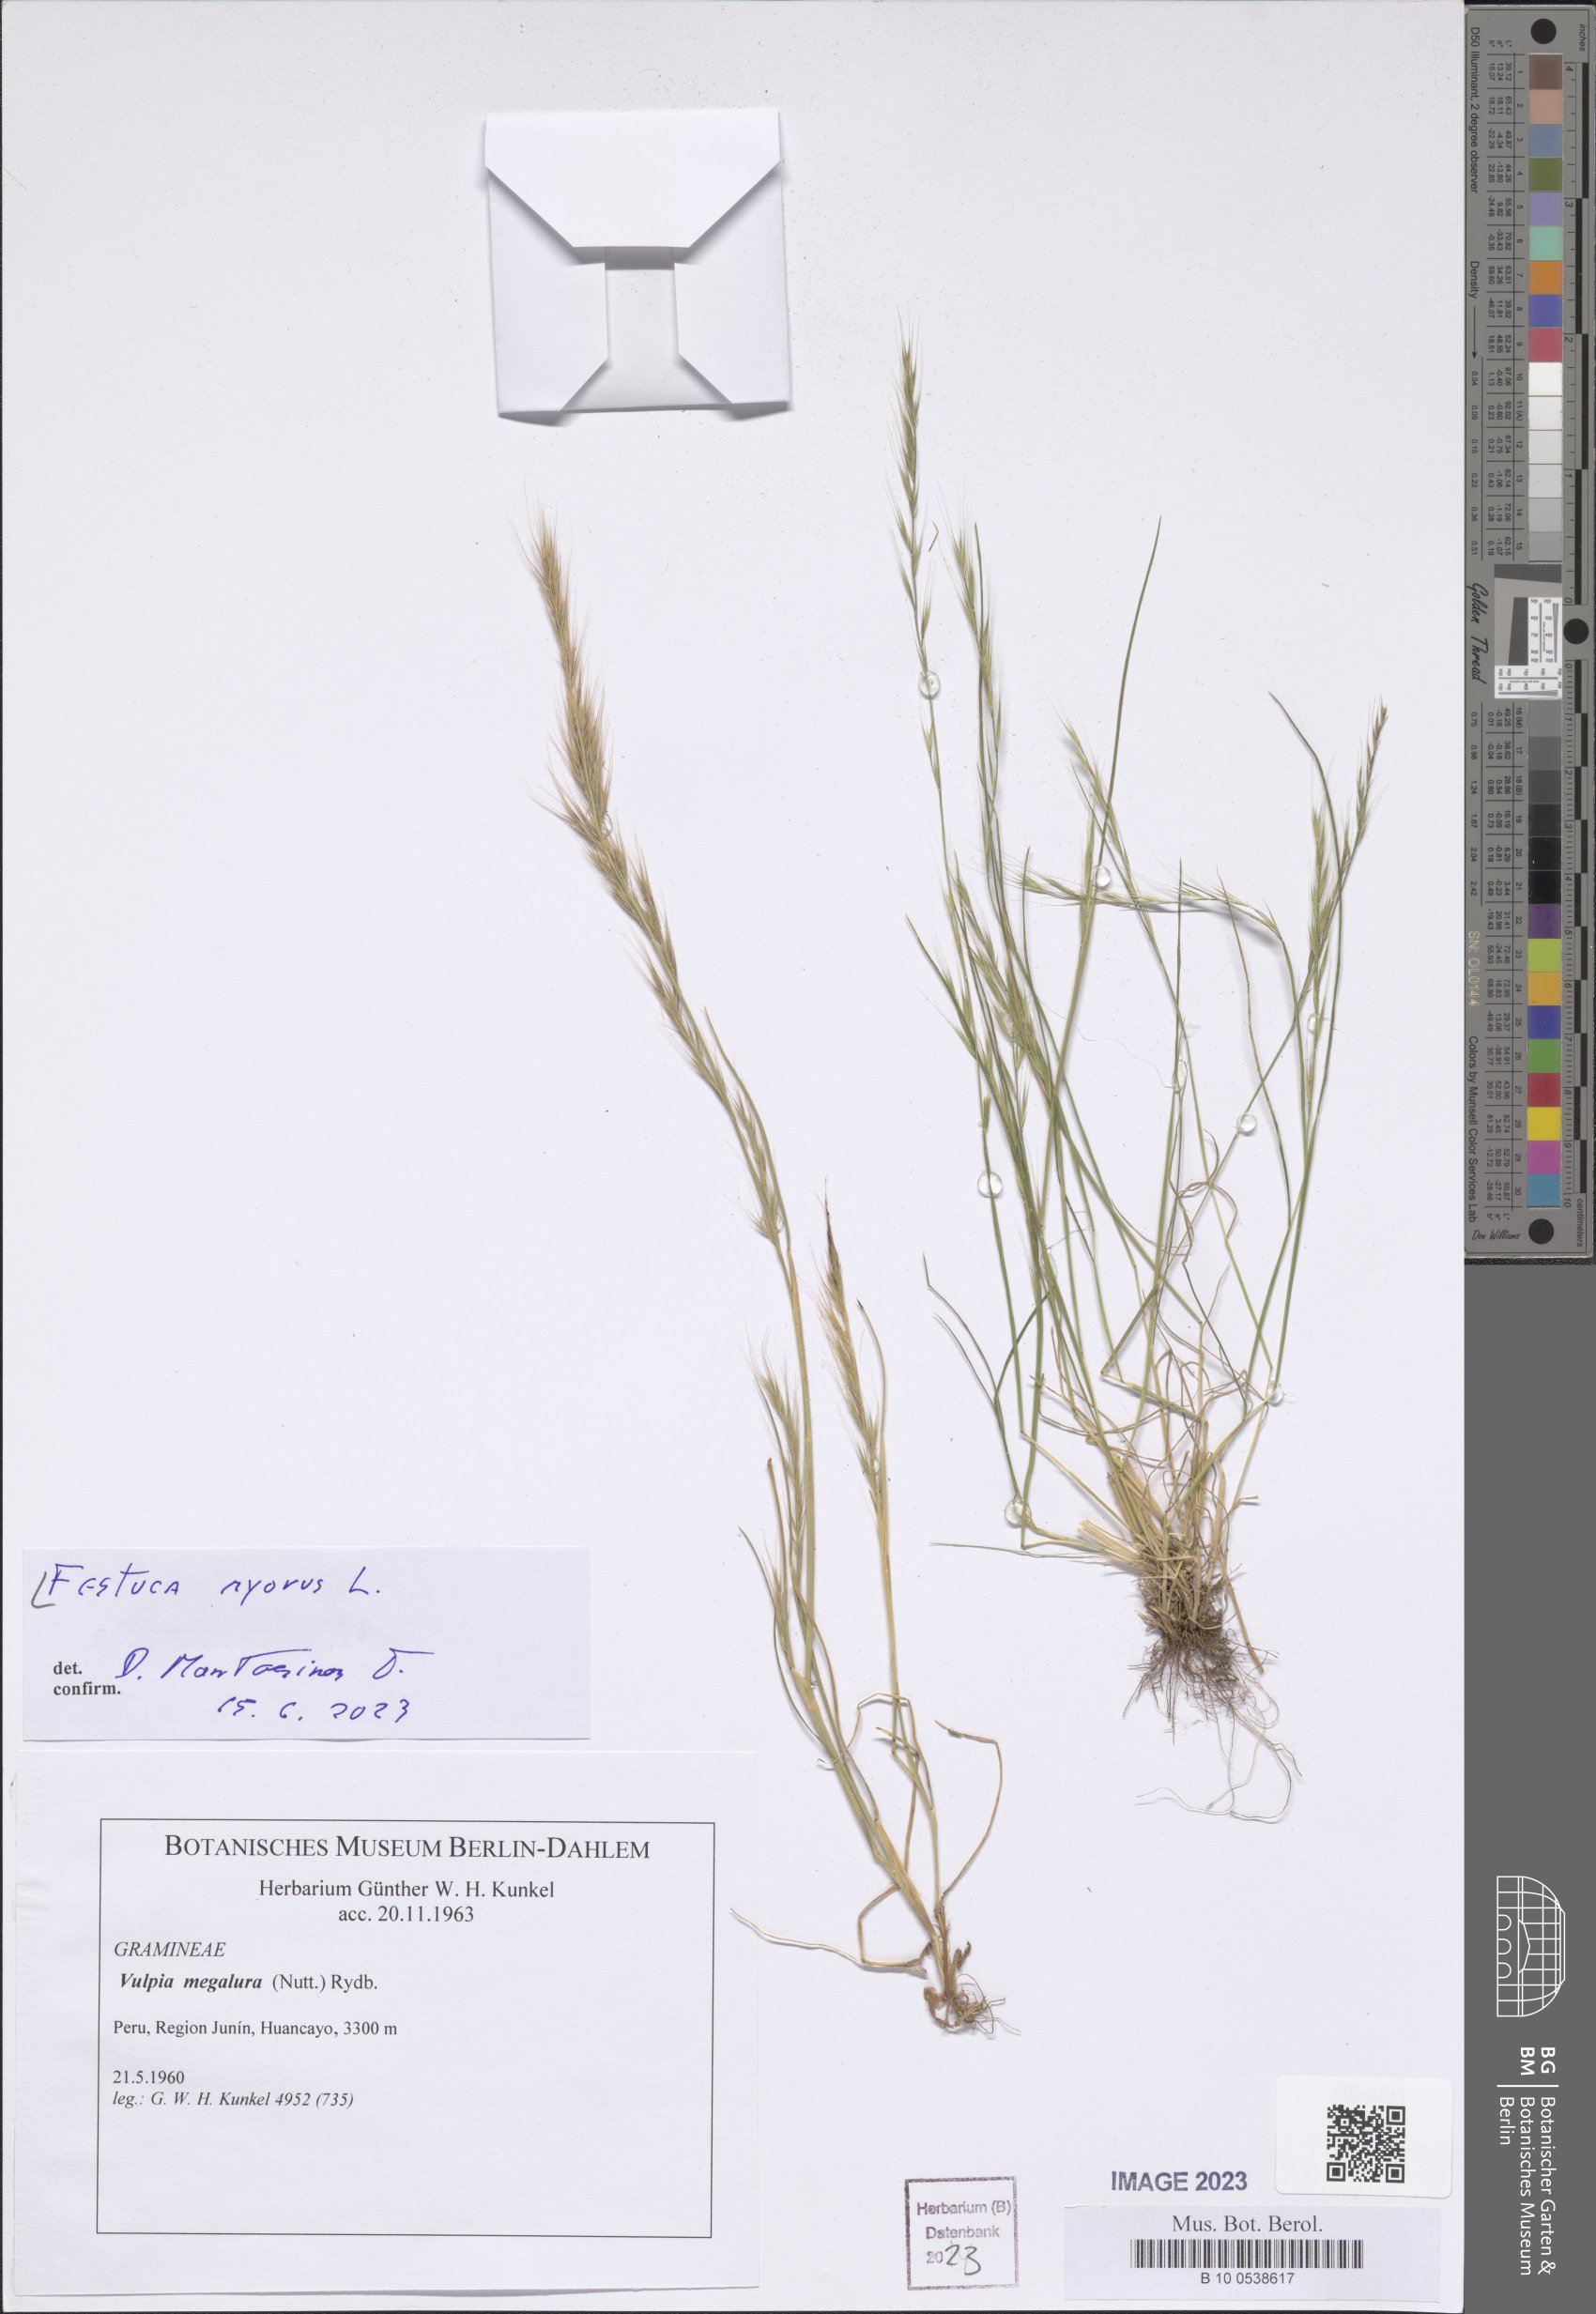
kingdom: Plantae
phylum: Tracheophyta
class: Liliopsida
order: Poales
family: Poaceae
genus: Festuca
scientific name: Festuca myuros
